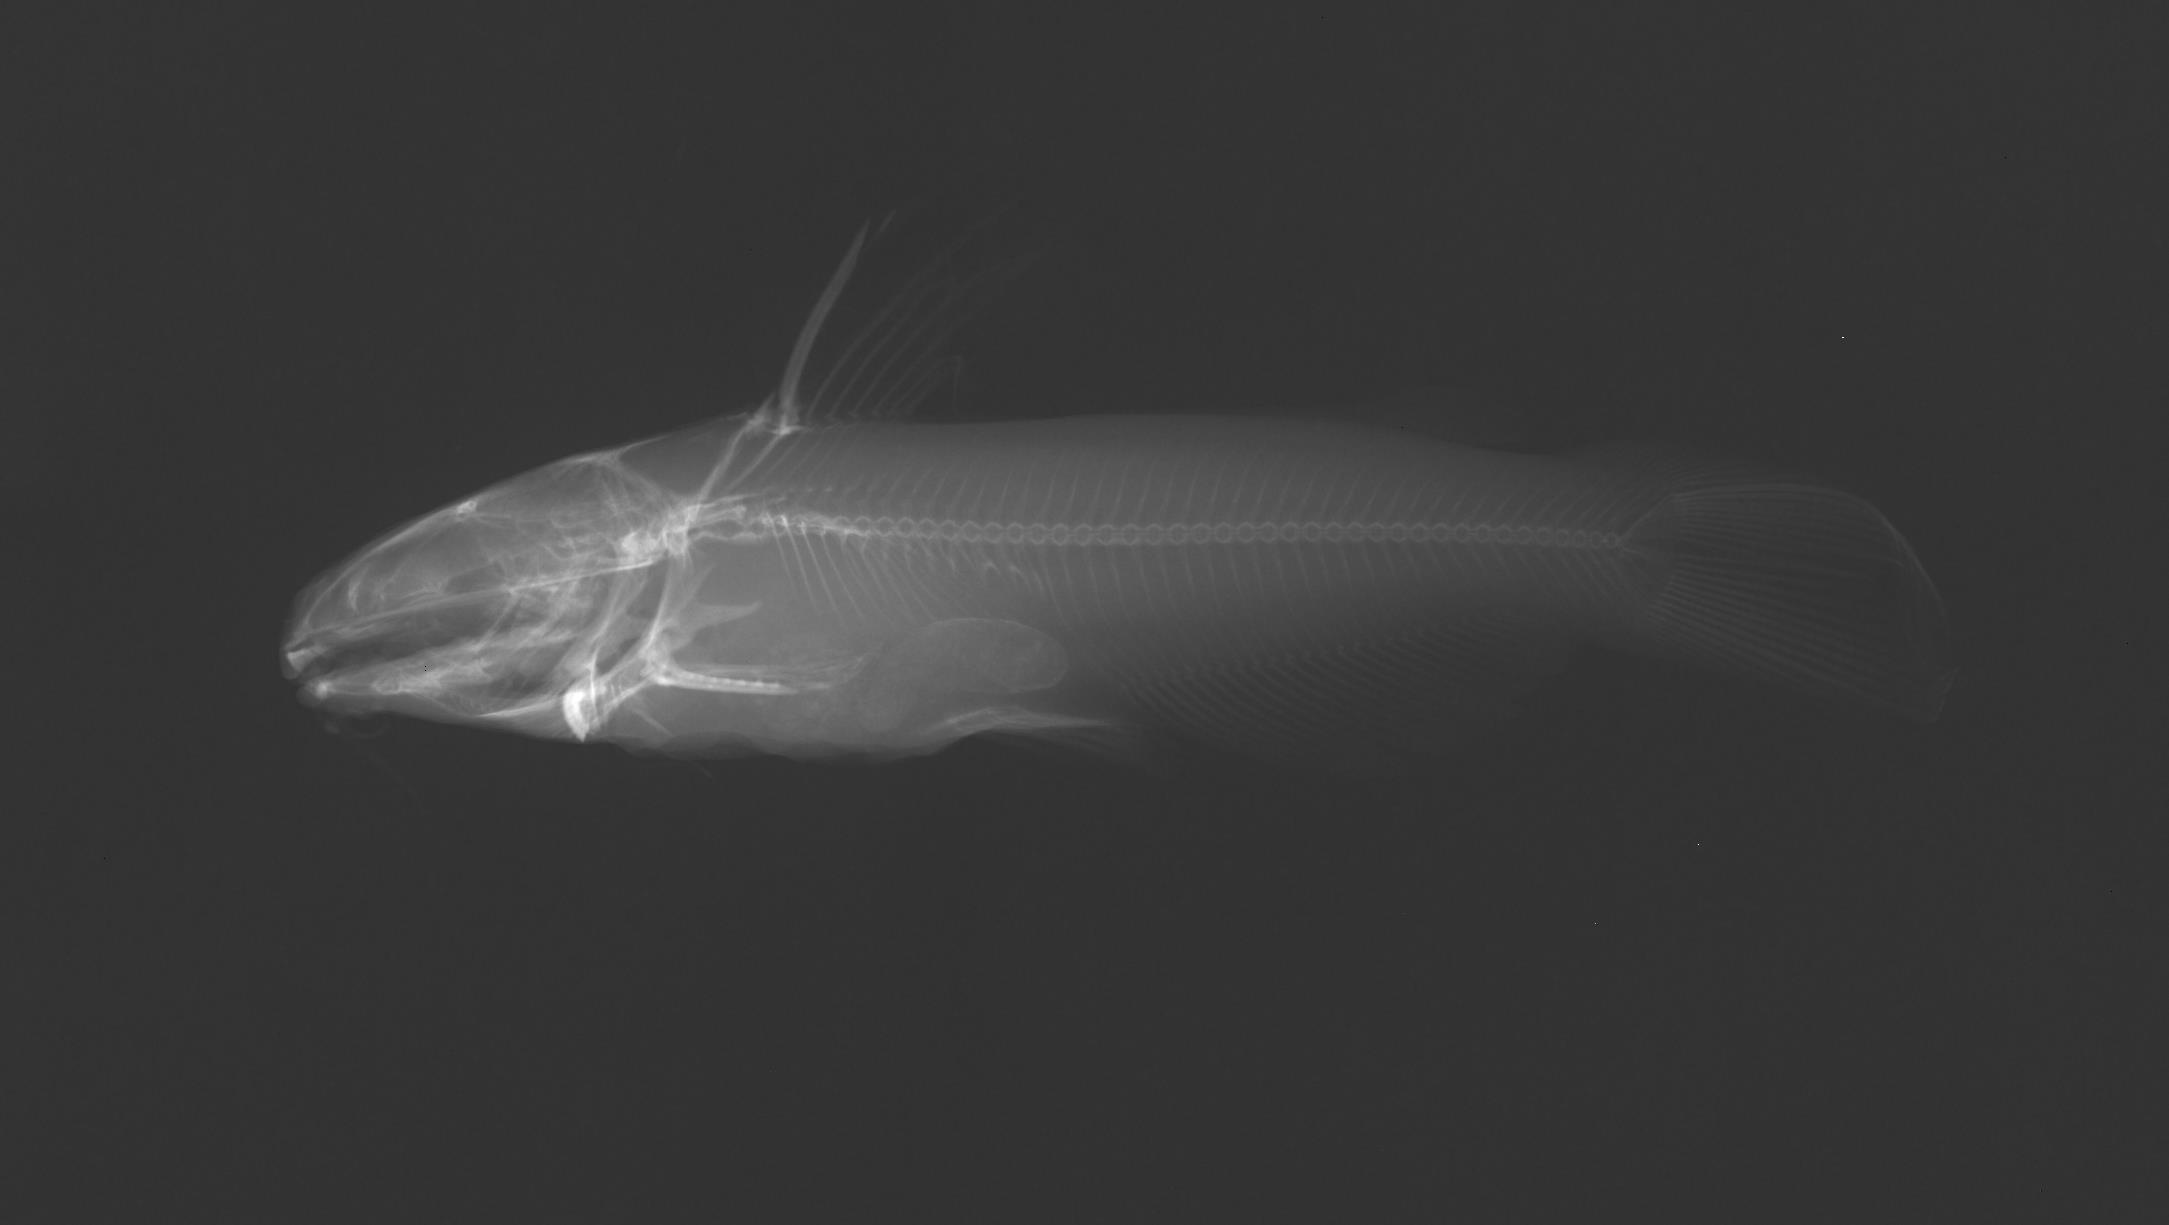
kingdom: Animalia
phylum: Chordata
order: Siluriformes
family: Ictaluridae
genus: Ictalurus
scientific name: Ictalurus punctatus
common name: Channel catfish
